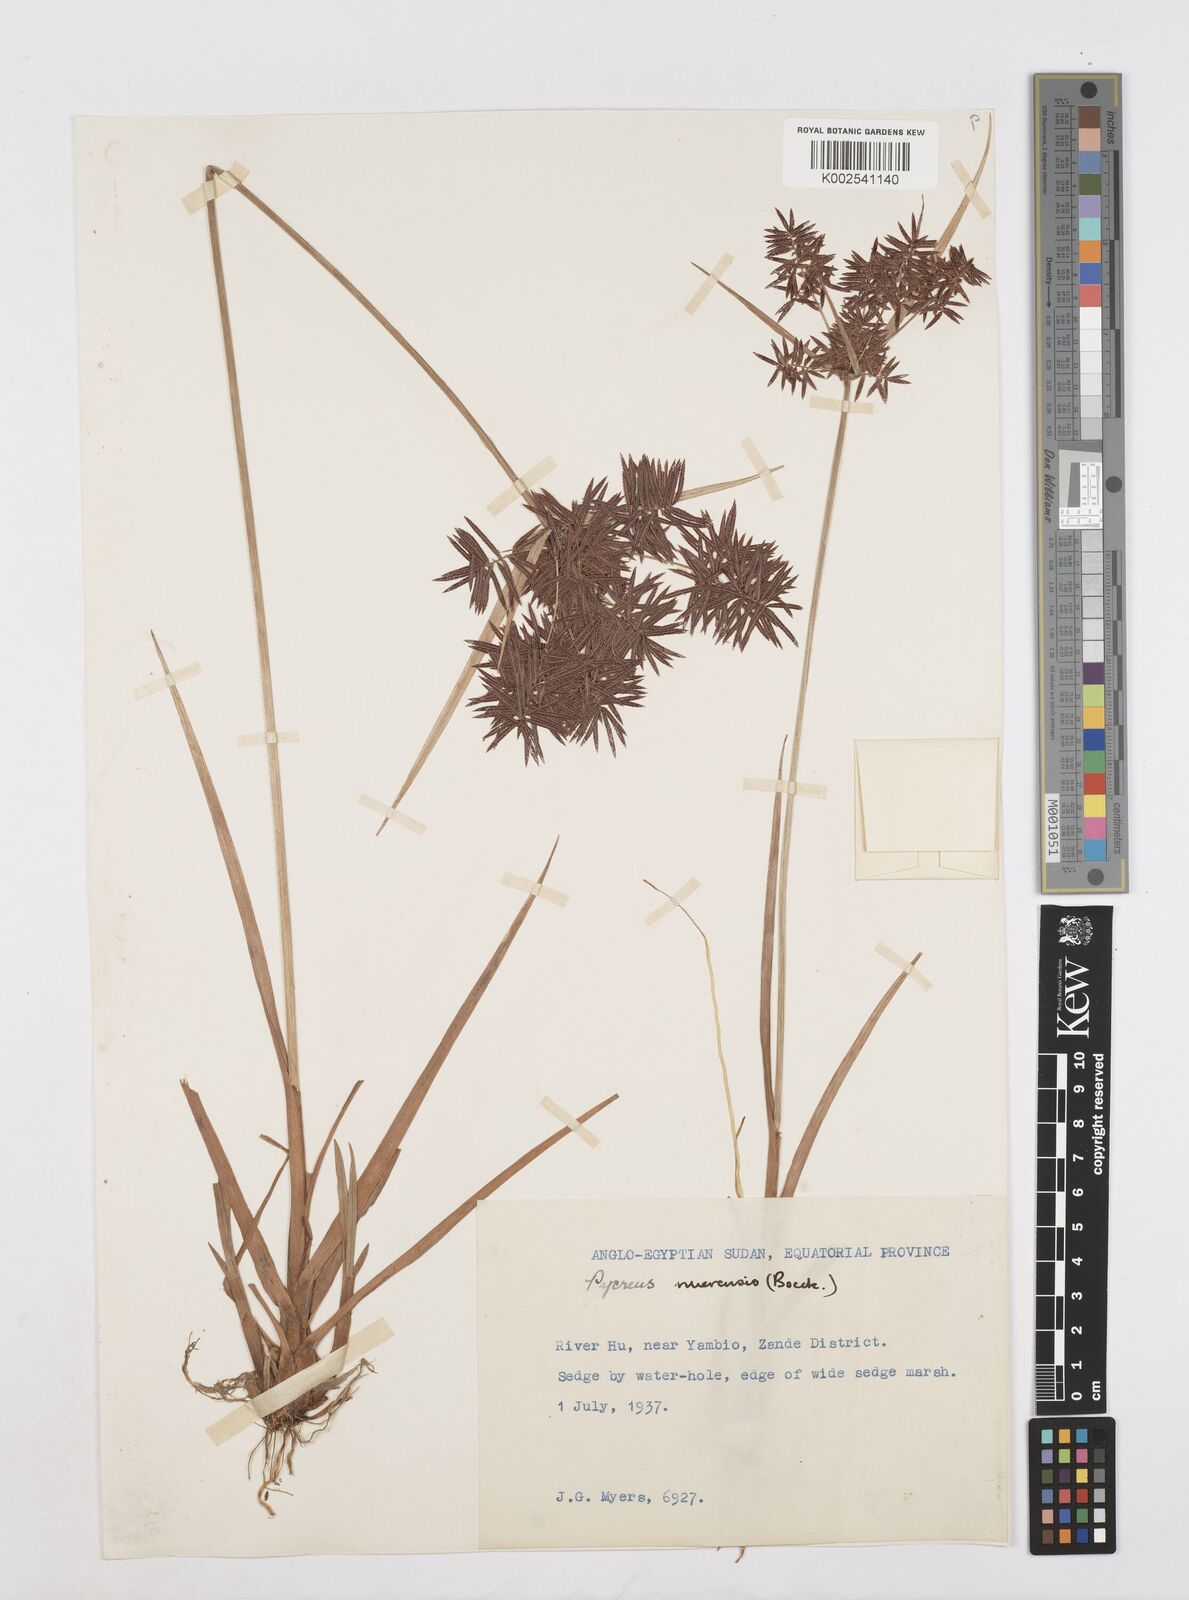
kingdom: Plantae
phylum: Tracheophyta
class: Liliopsida
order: Poales
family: Cyperaceae
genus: Cyperus
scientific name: Cyperus nuerensis
